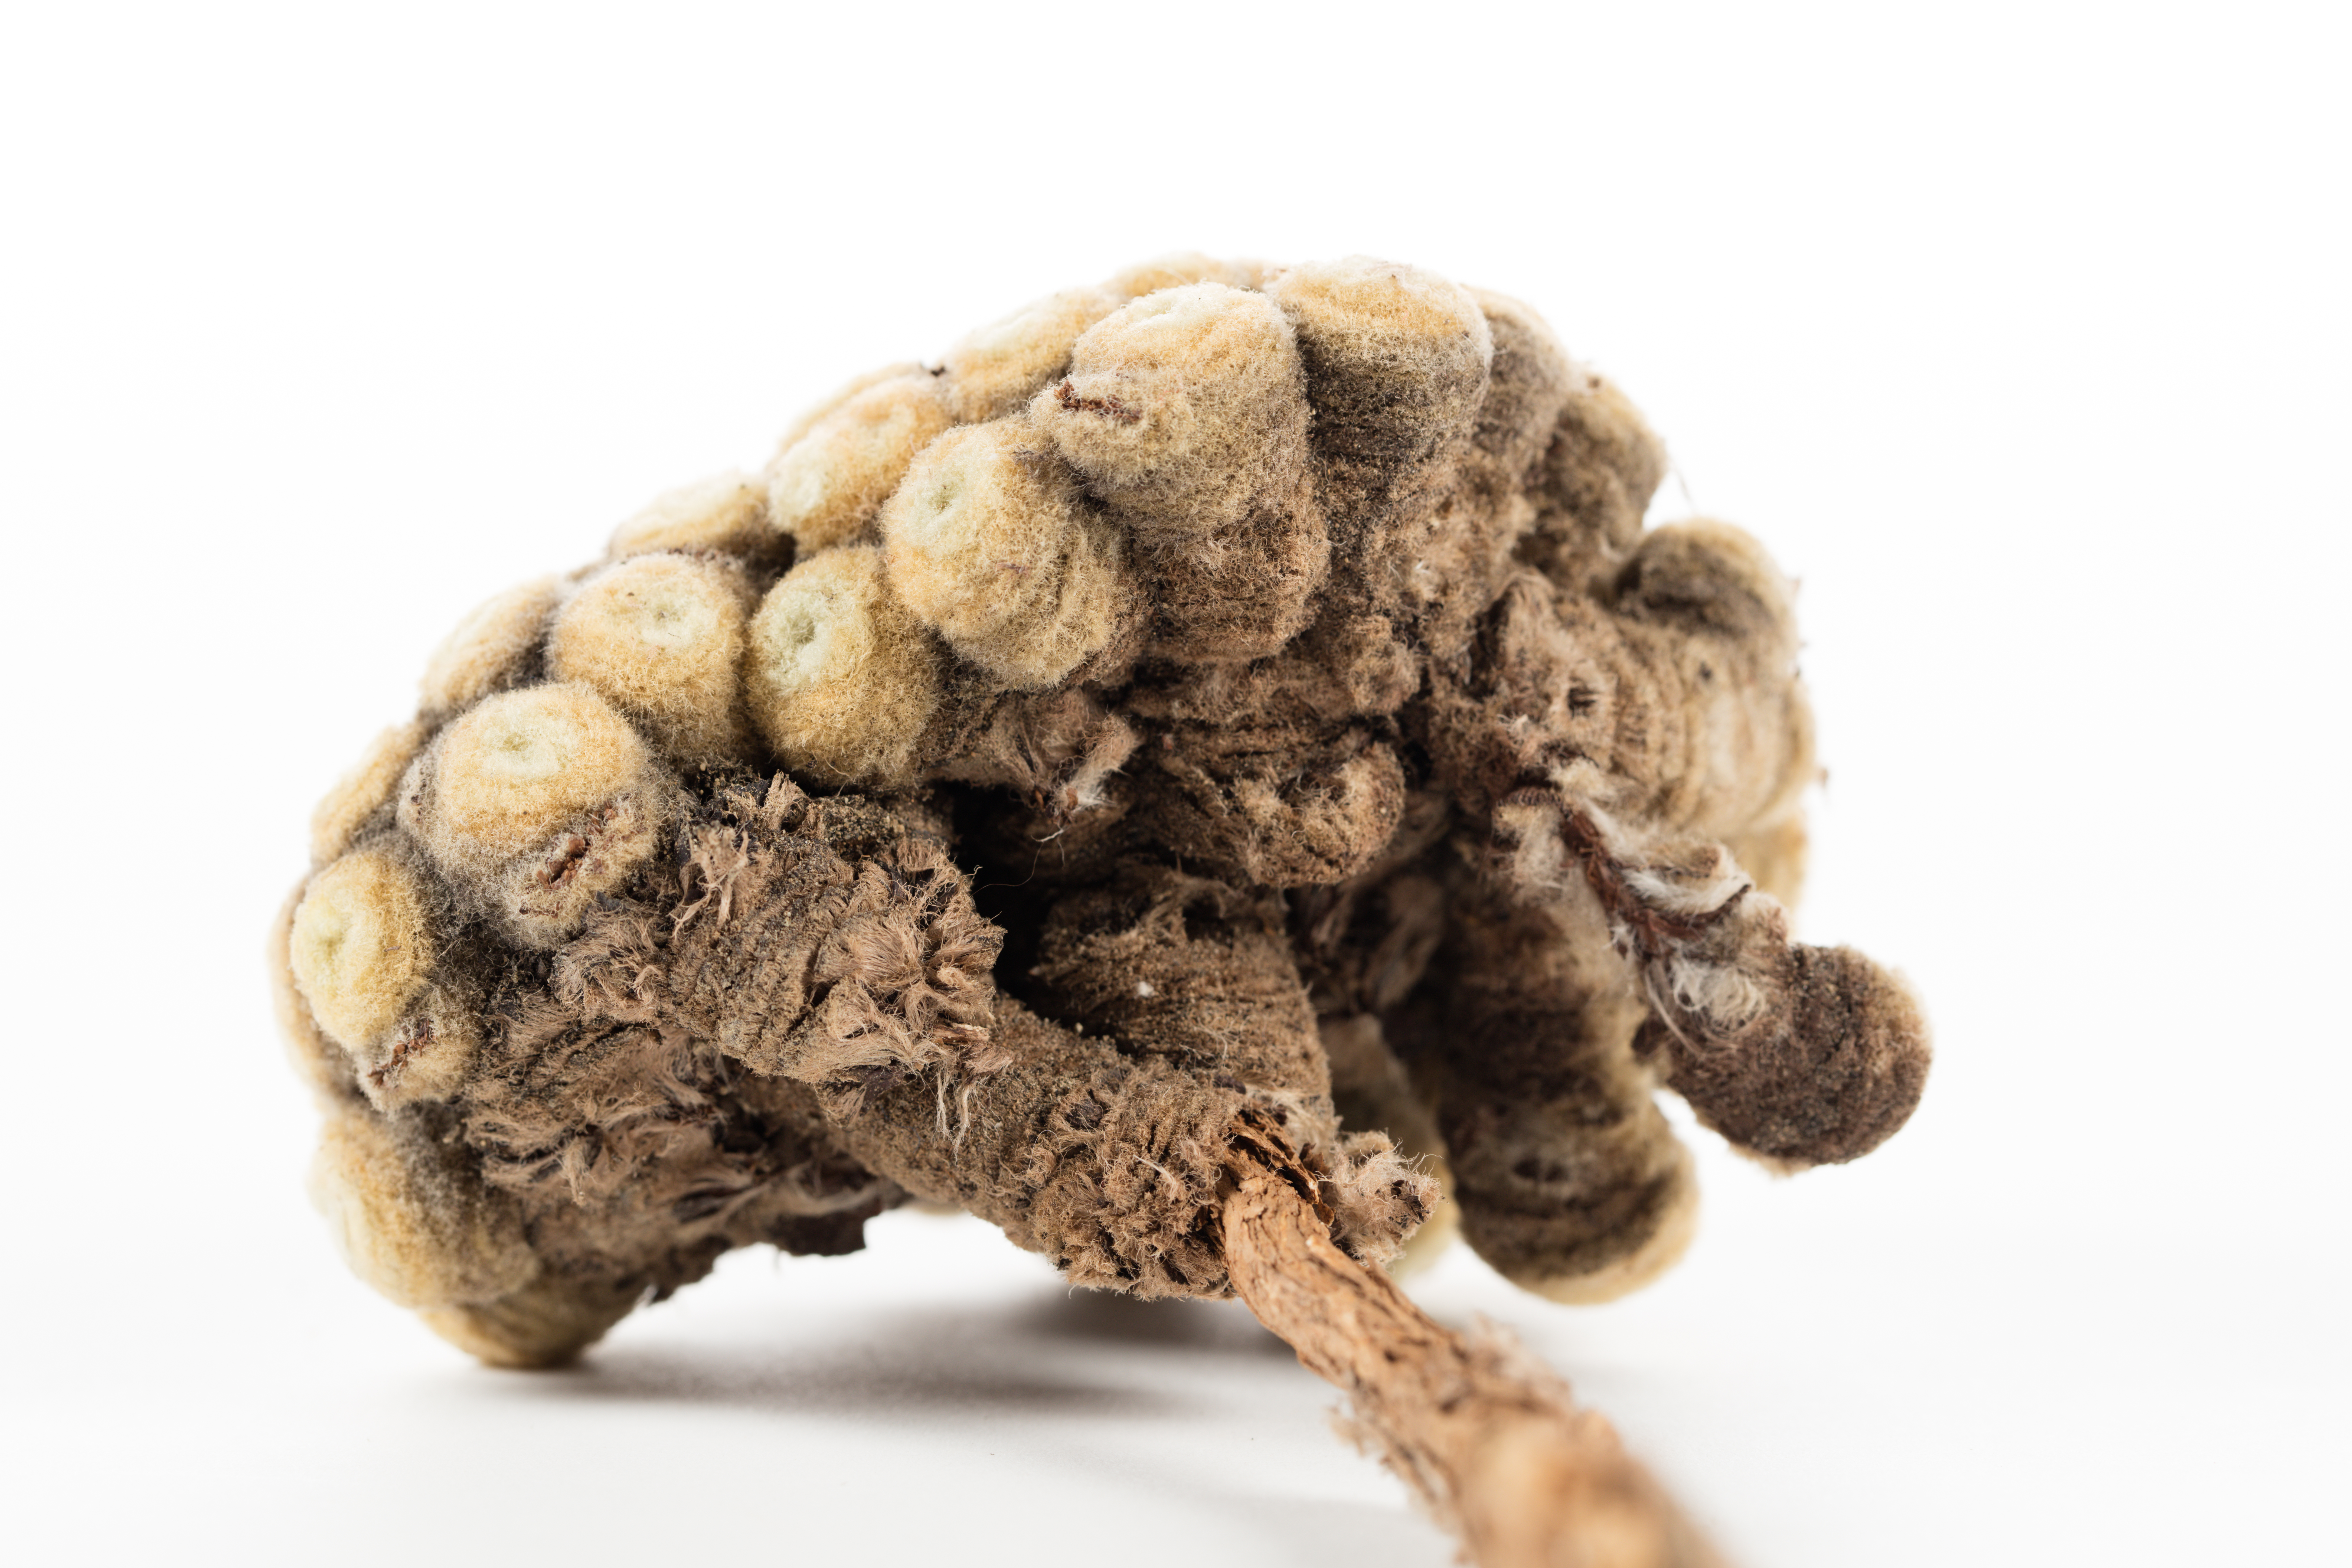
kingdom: Plantae
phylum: Tracheophyta
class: Magnoliopsida
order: Asterales
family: Asteraceae
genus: Haastia
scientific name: Haastia pulvinaris
